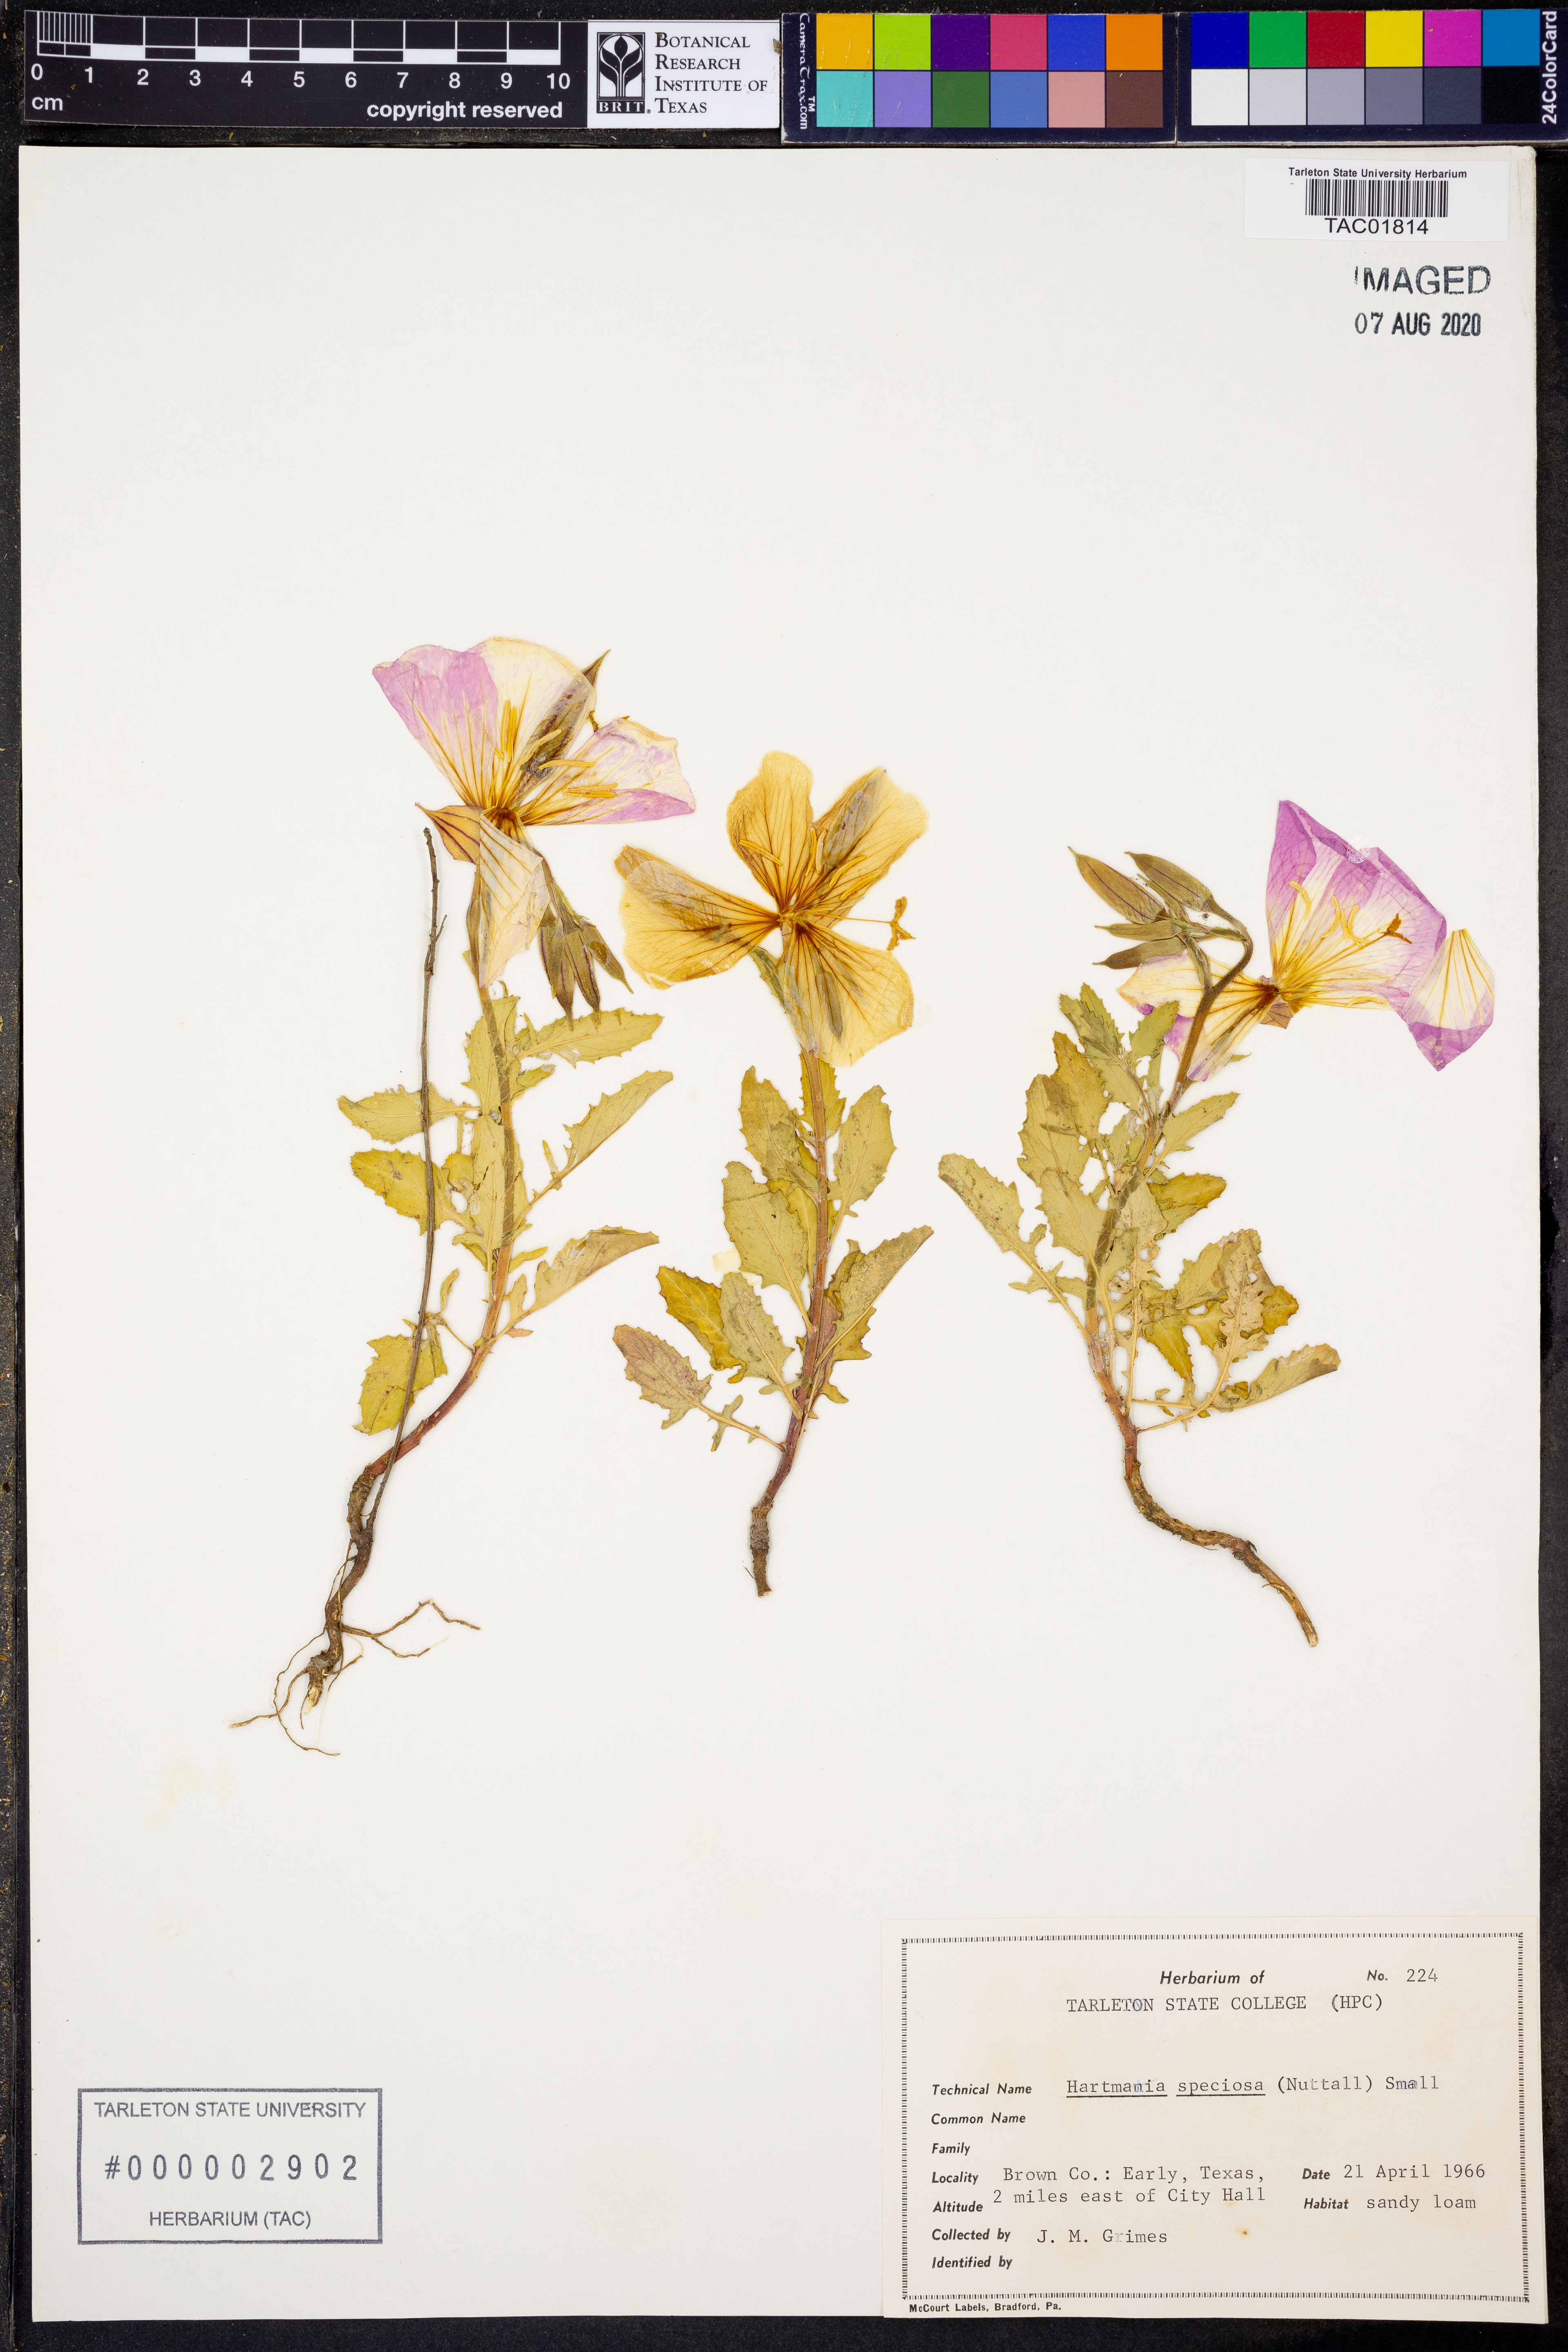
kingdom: Plantae
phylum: Tracheophyta
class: Magnoliopsida
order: Myrtales
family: Onagraceae
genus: Oenothera
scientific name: Oenothera speciosa
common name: White evening-primrose
